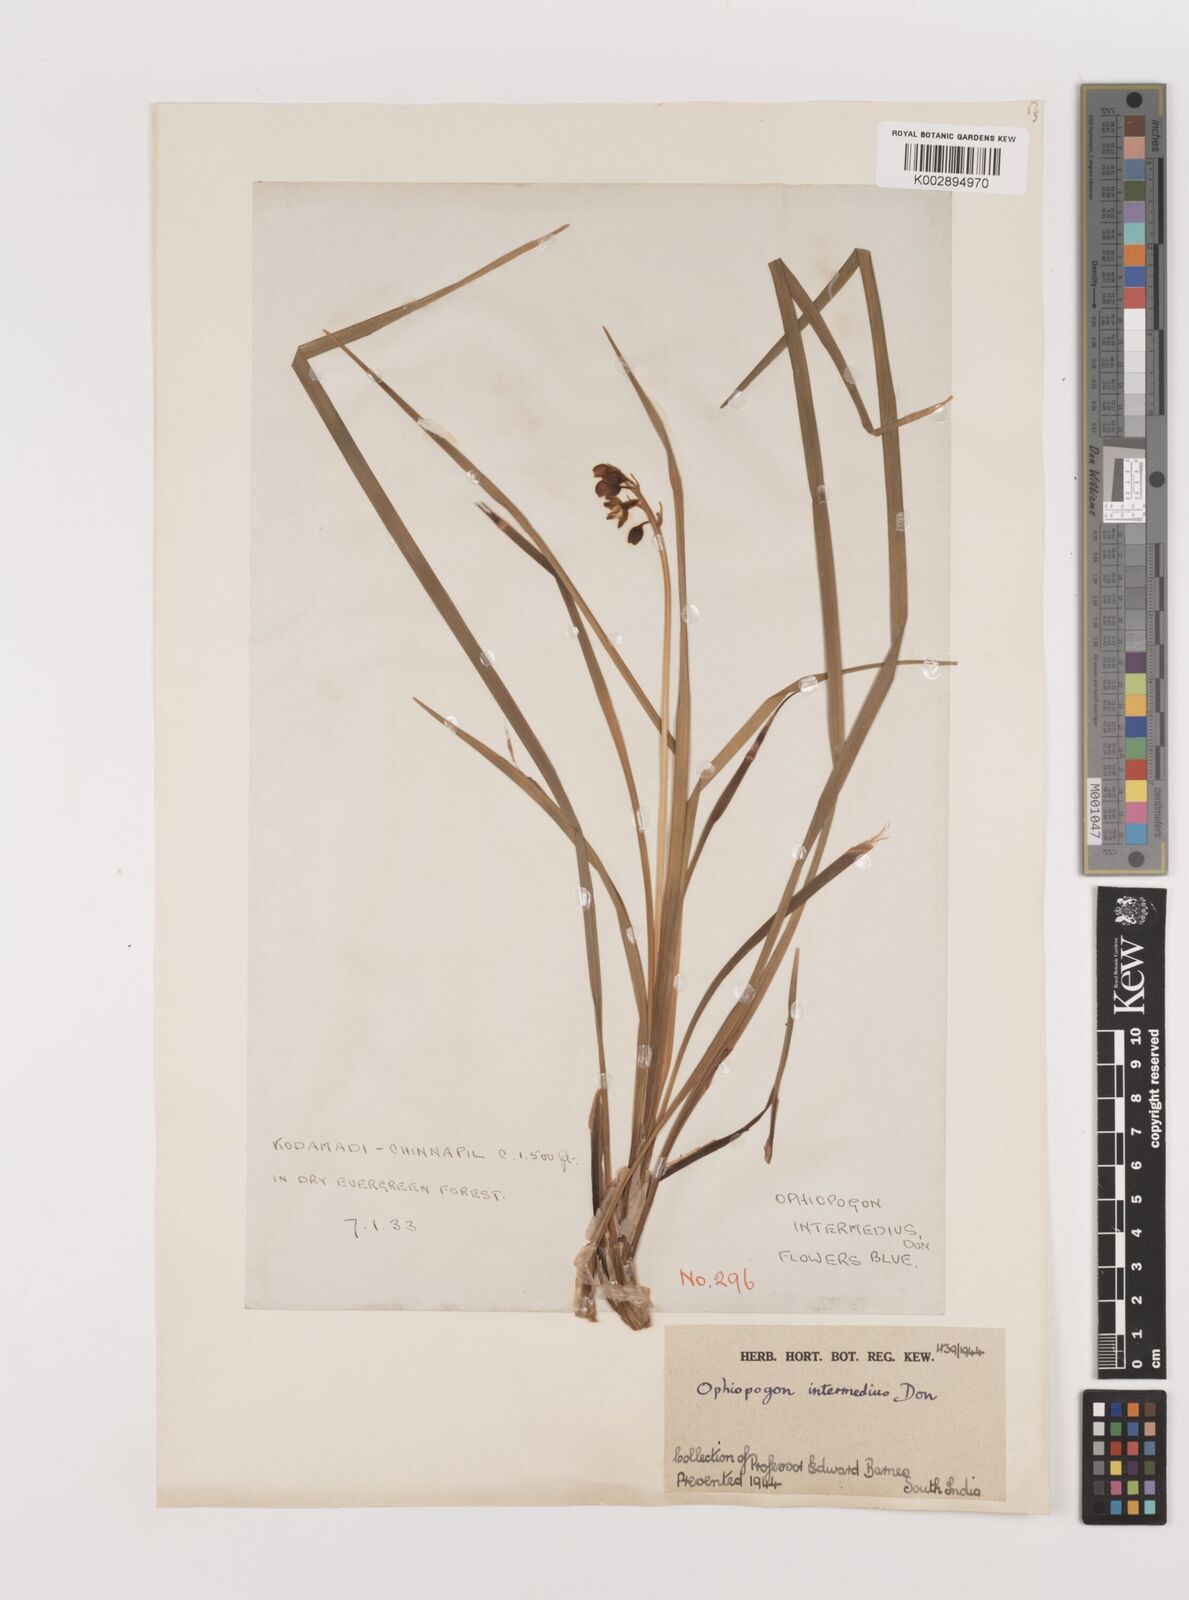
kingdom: Plantae
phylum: Tracheophyta
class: Liliopsida
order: Asparagales
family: Asparagaceae
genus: Ophiopogon
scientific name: Ophiopogon intermedius
